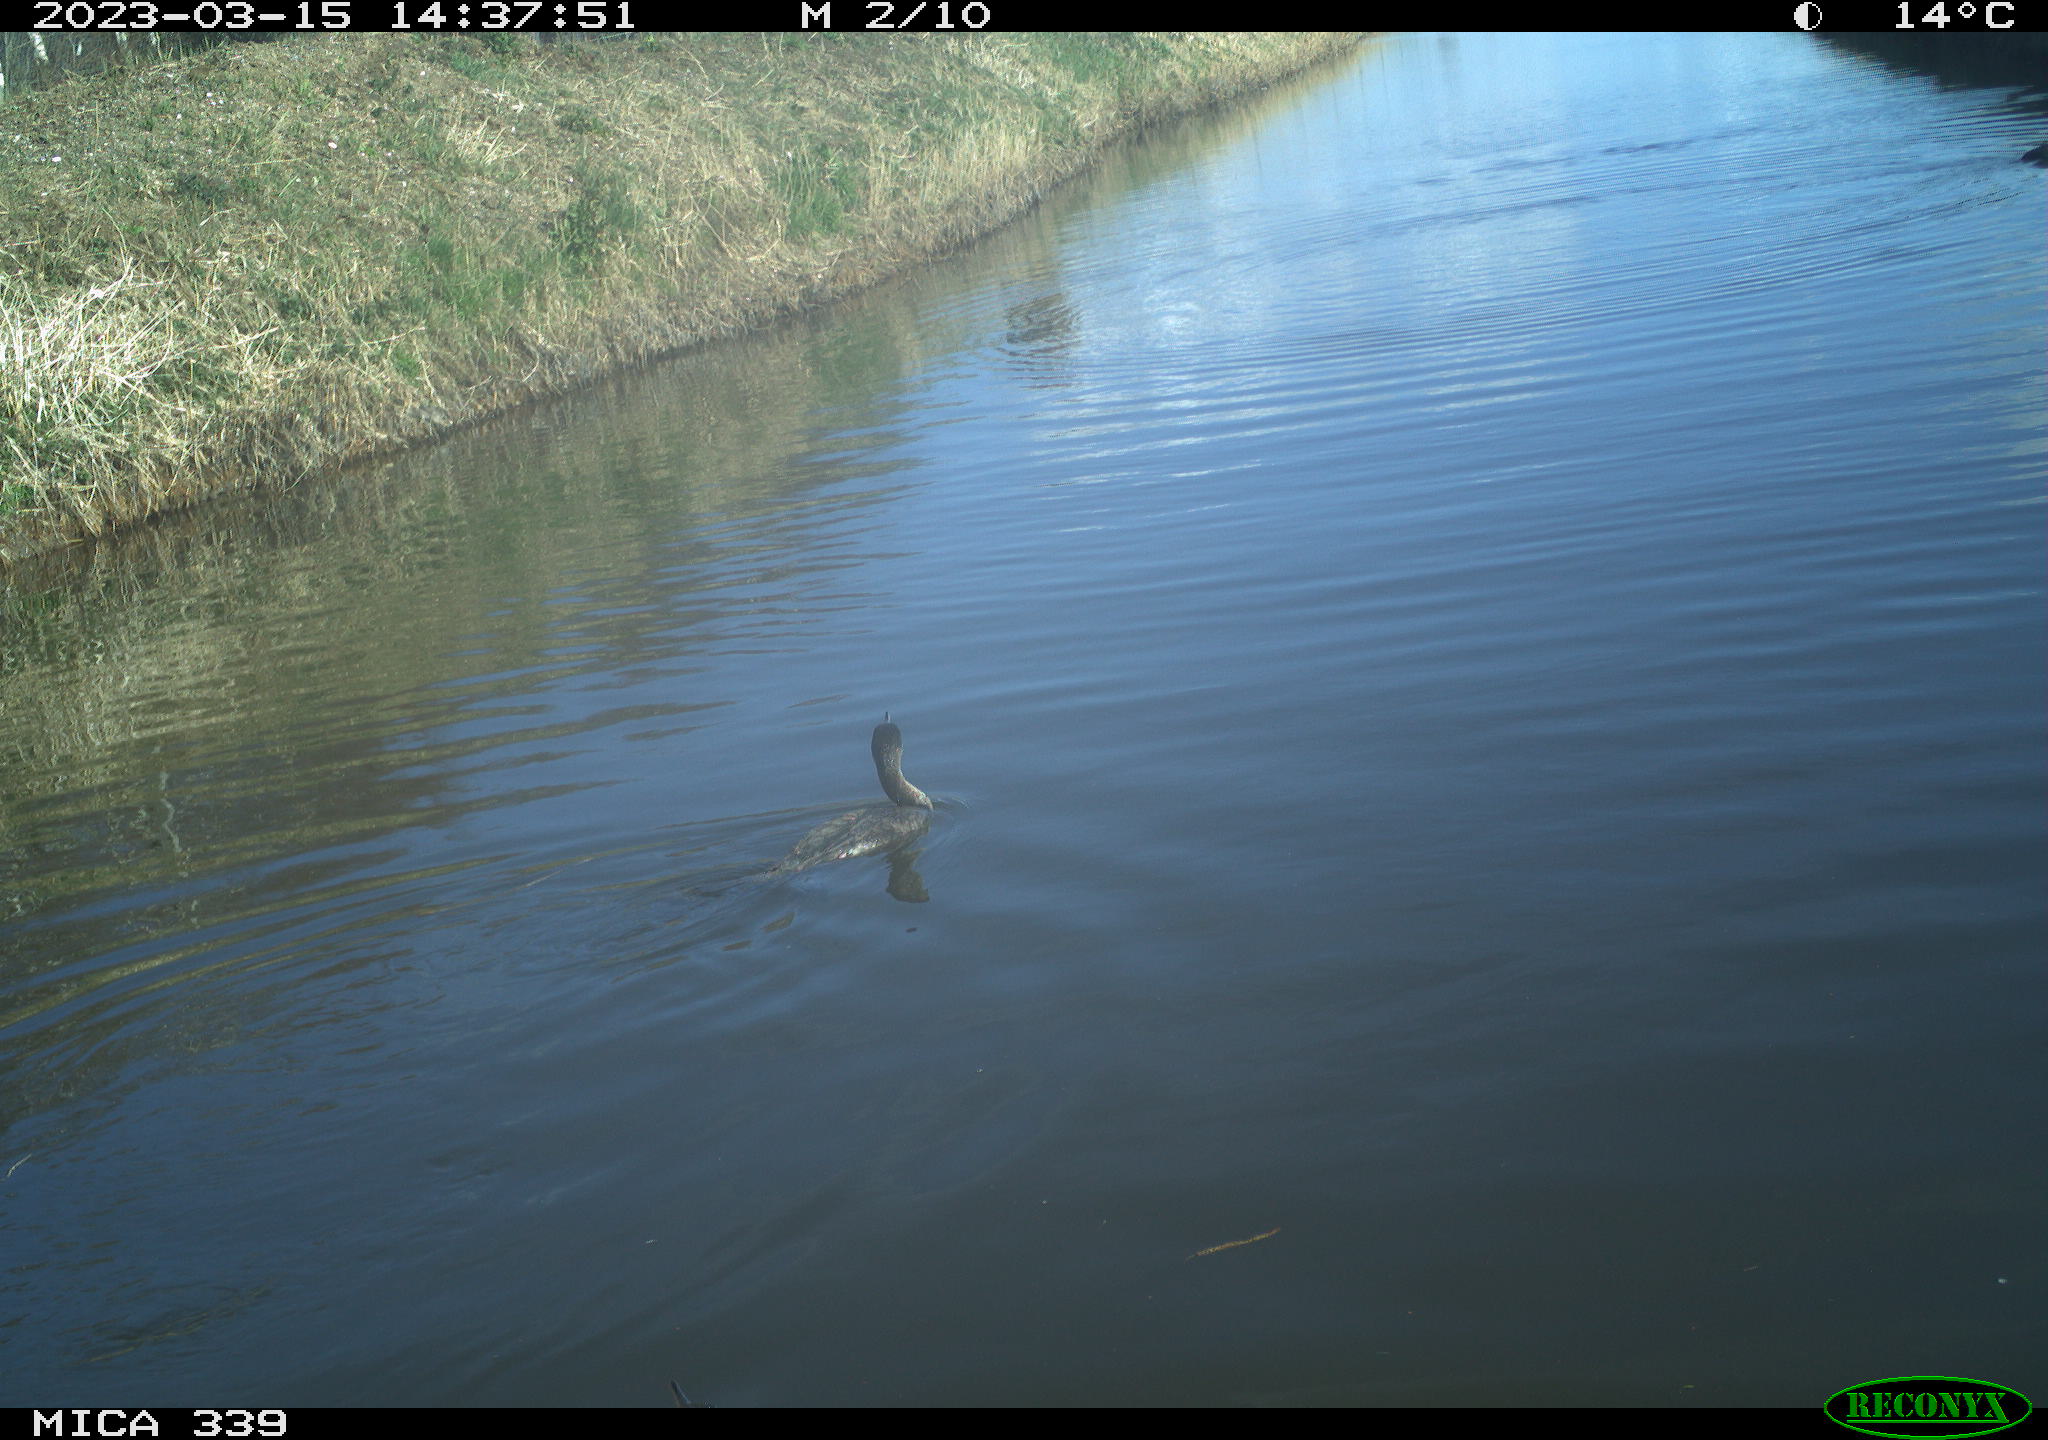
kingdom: Animalia
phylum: Chordata
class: Aves
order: Pelecaniformes
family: Ardeidae
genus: Ardea
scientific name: Ardea alba
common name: Great egret
